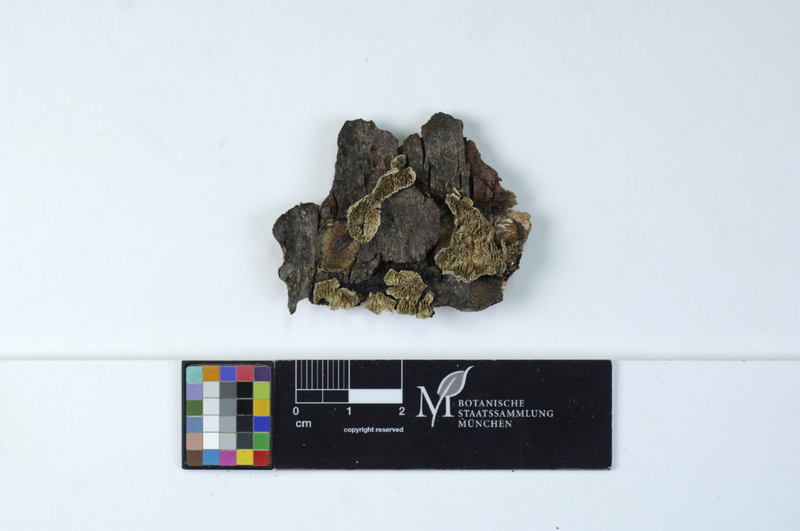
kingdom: Fungi
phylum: Basidiomycota
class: Agaricomycetes
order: Hymenochaetales
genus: Trichaptum
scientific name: Trichaptum laricinum
